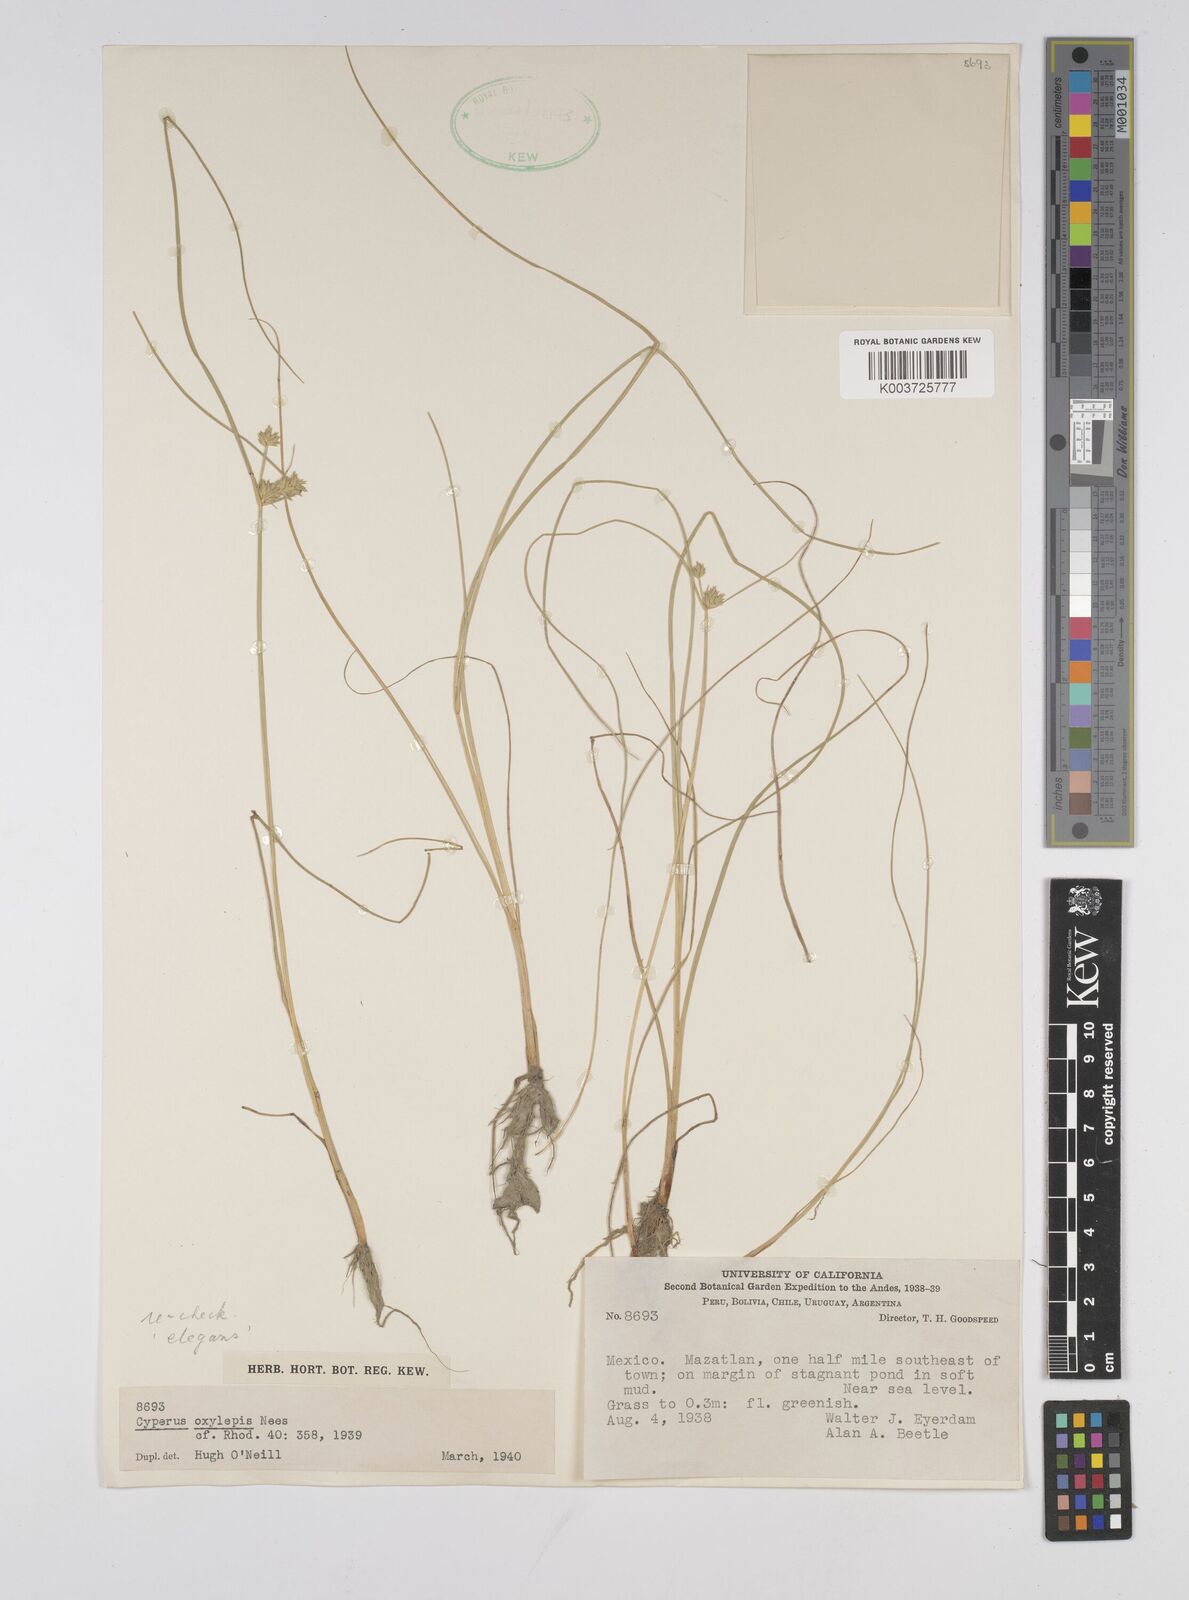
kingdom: Plantae
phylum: Tracheophyta
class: Liliopsida
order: Poales
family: Cyperaceae
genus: Cyperus
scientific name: Cyperus elegans
